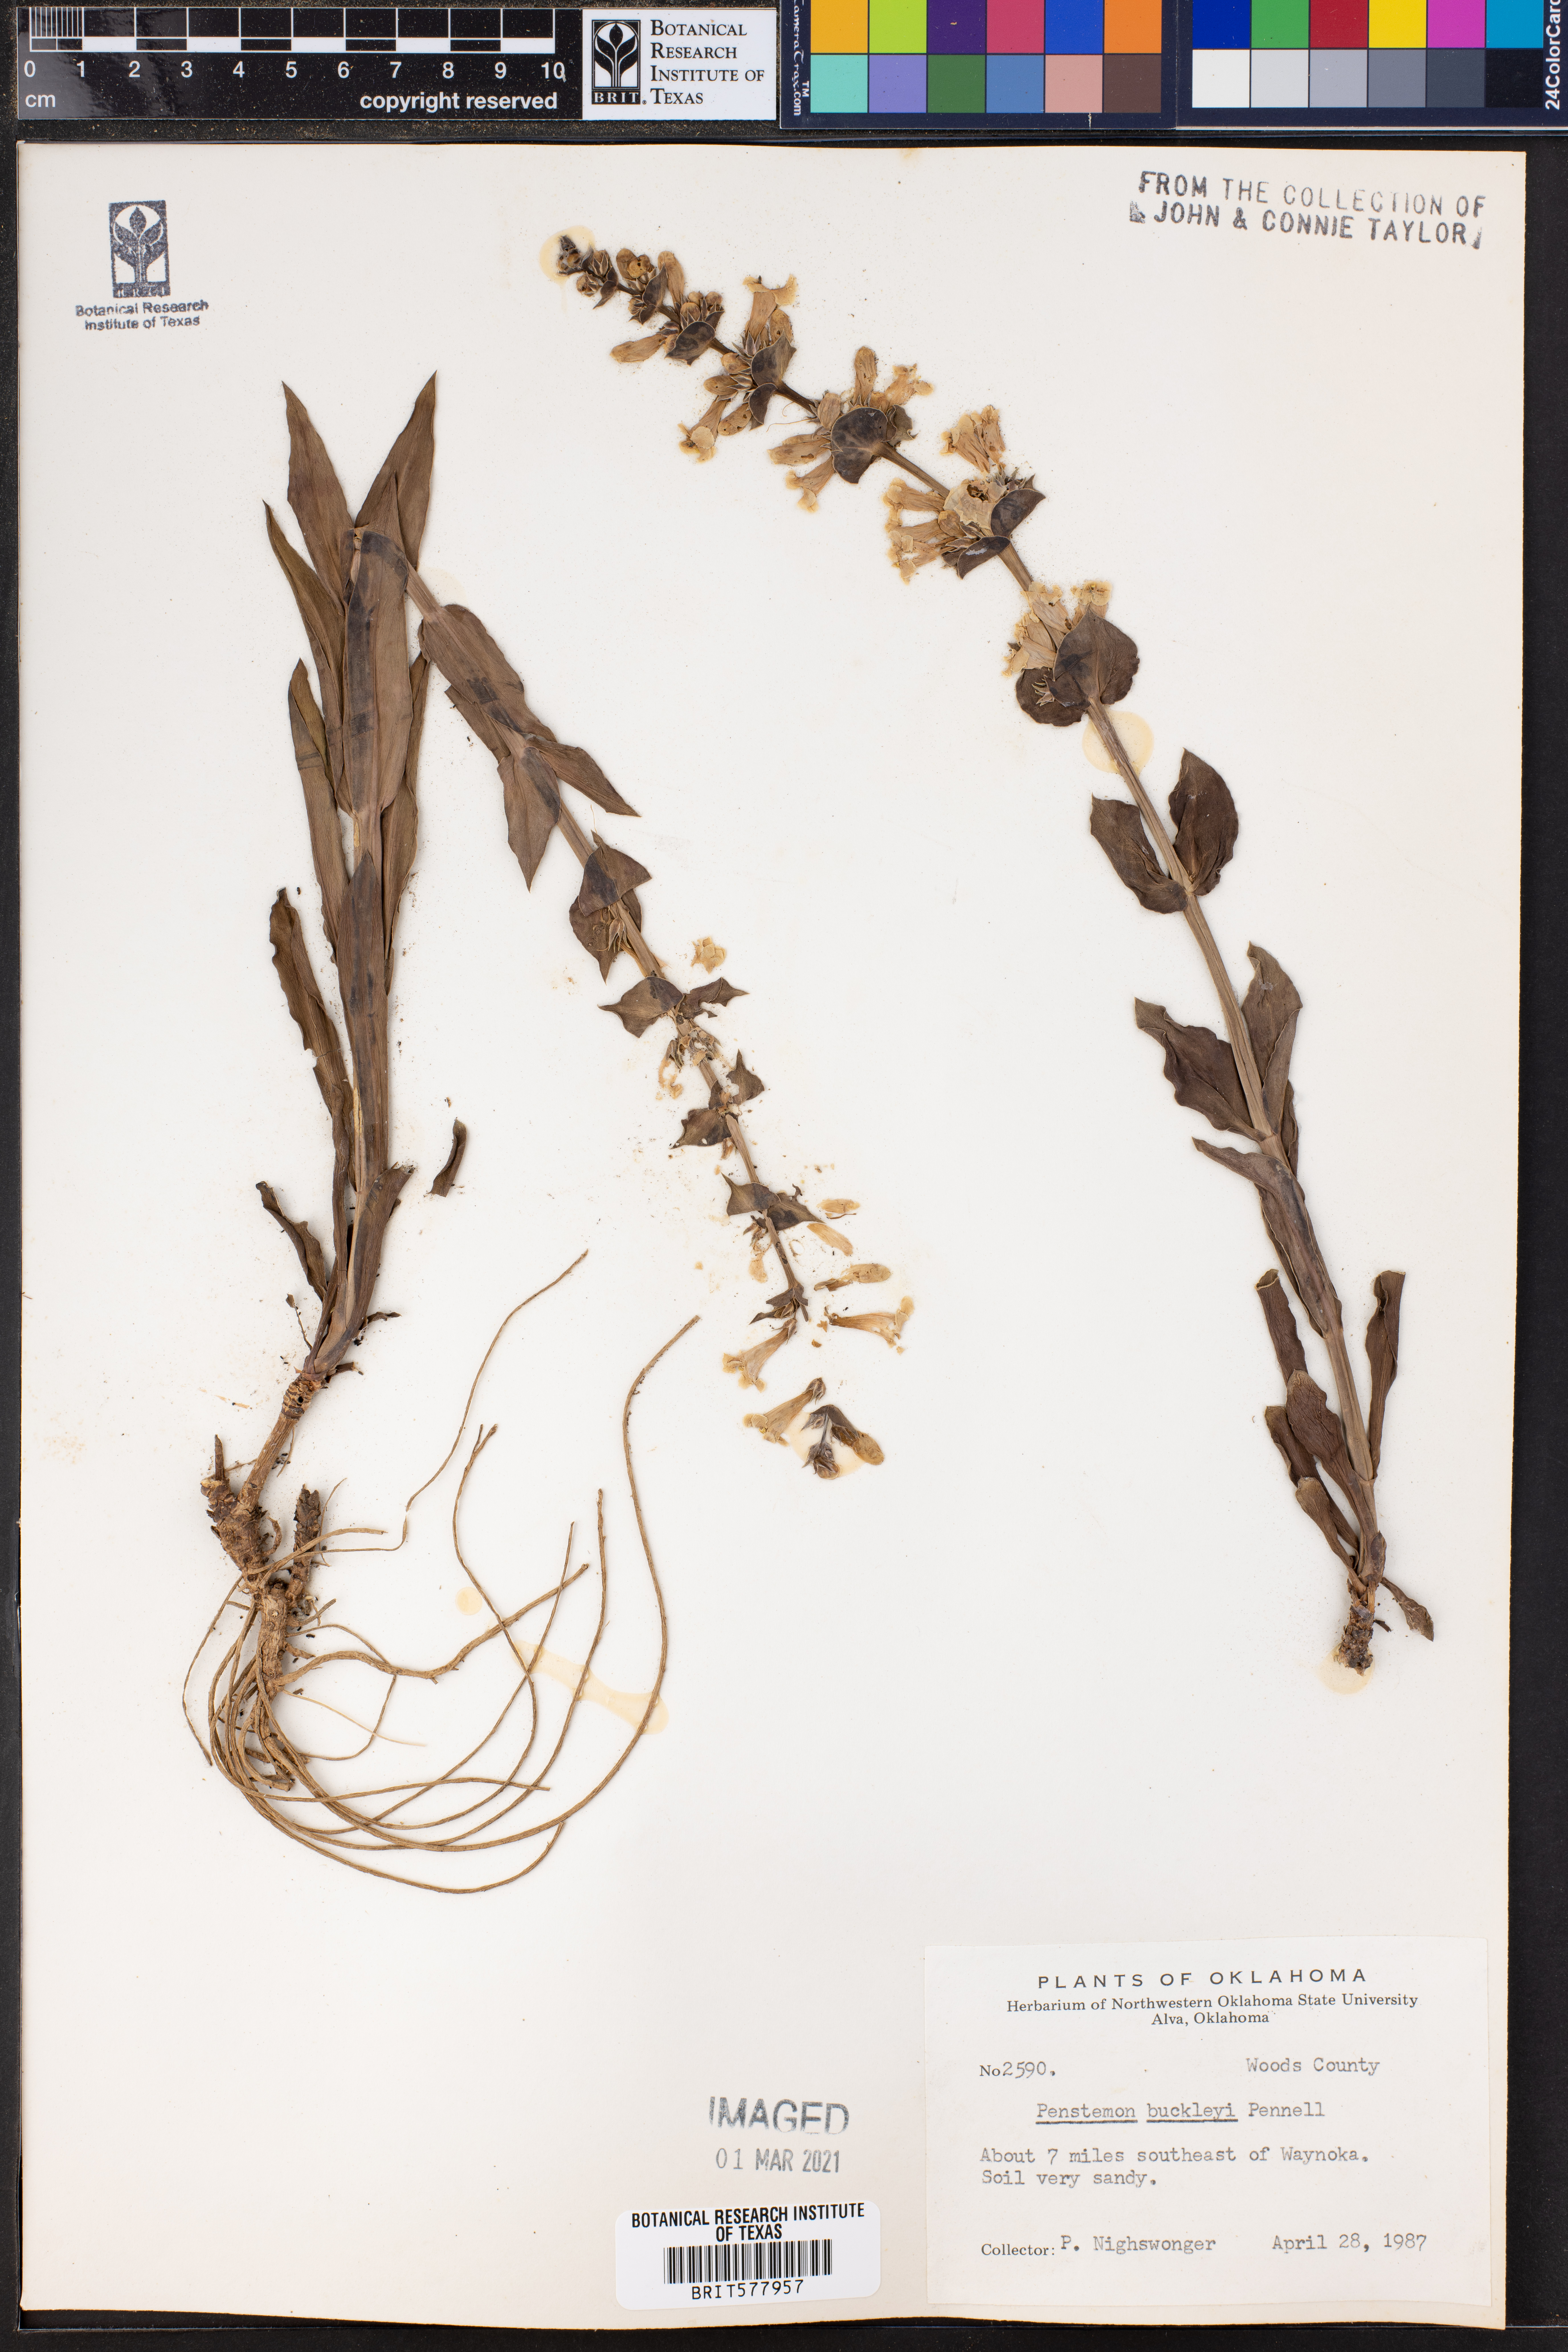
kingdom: Plantae
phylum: Tracheophyta
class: Magnoliopsida
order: Lamiales
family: Plantaginaceae
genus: Penstemon
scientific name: Penstemon buckleyi
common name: Buckley's penstemon
